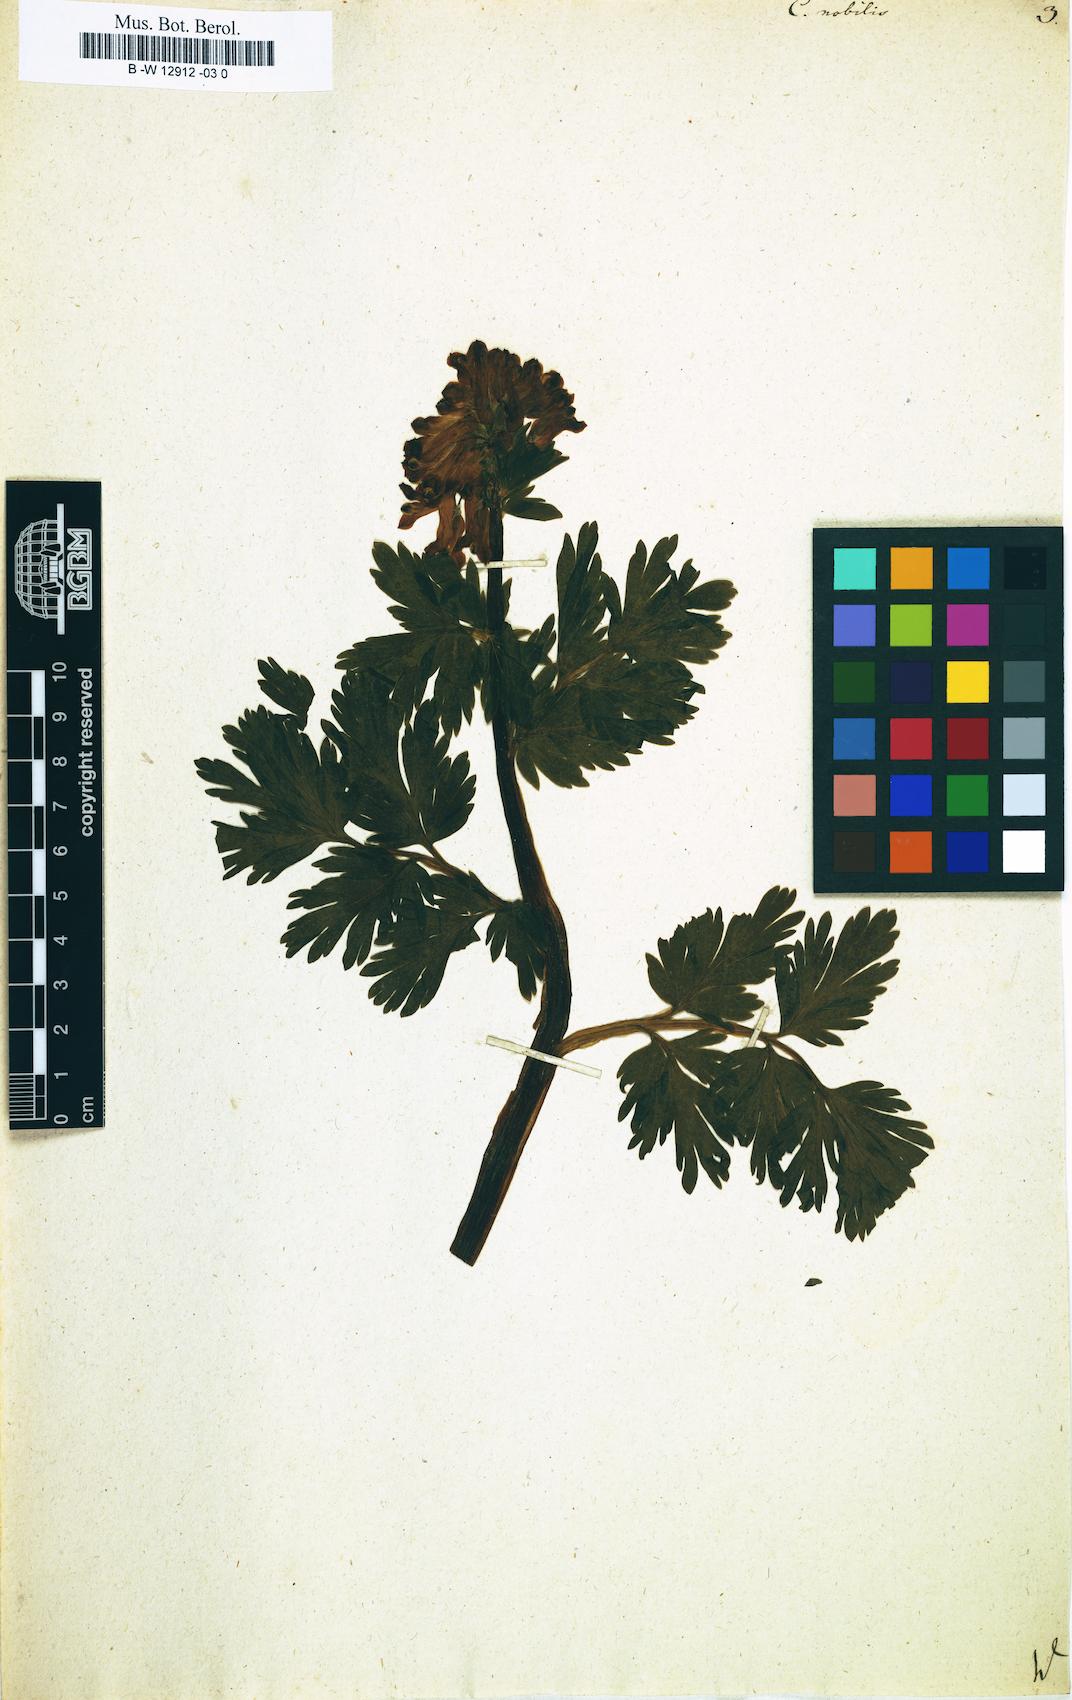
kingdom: Plantae
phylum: Tracheophyta
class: Magnoliopsida
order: Ranunculales
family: Papaveraceae
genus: Corydalis
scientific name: Corydalis nobilis
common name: Siberian corydalis
